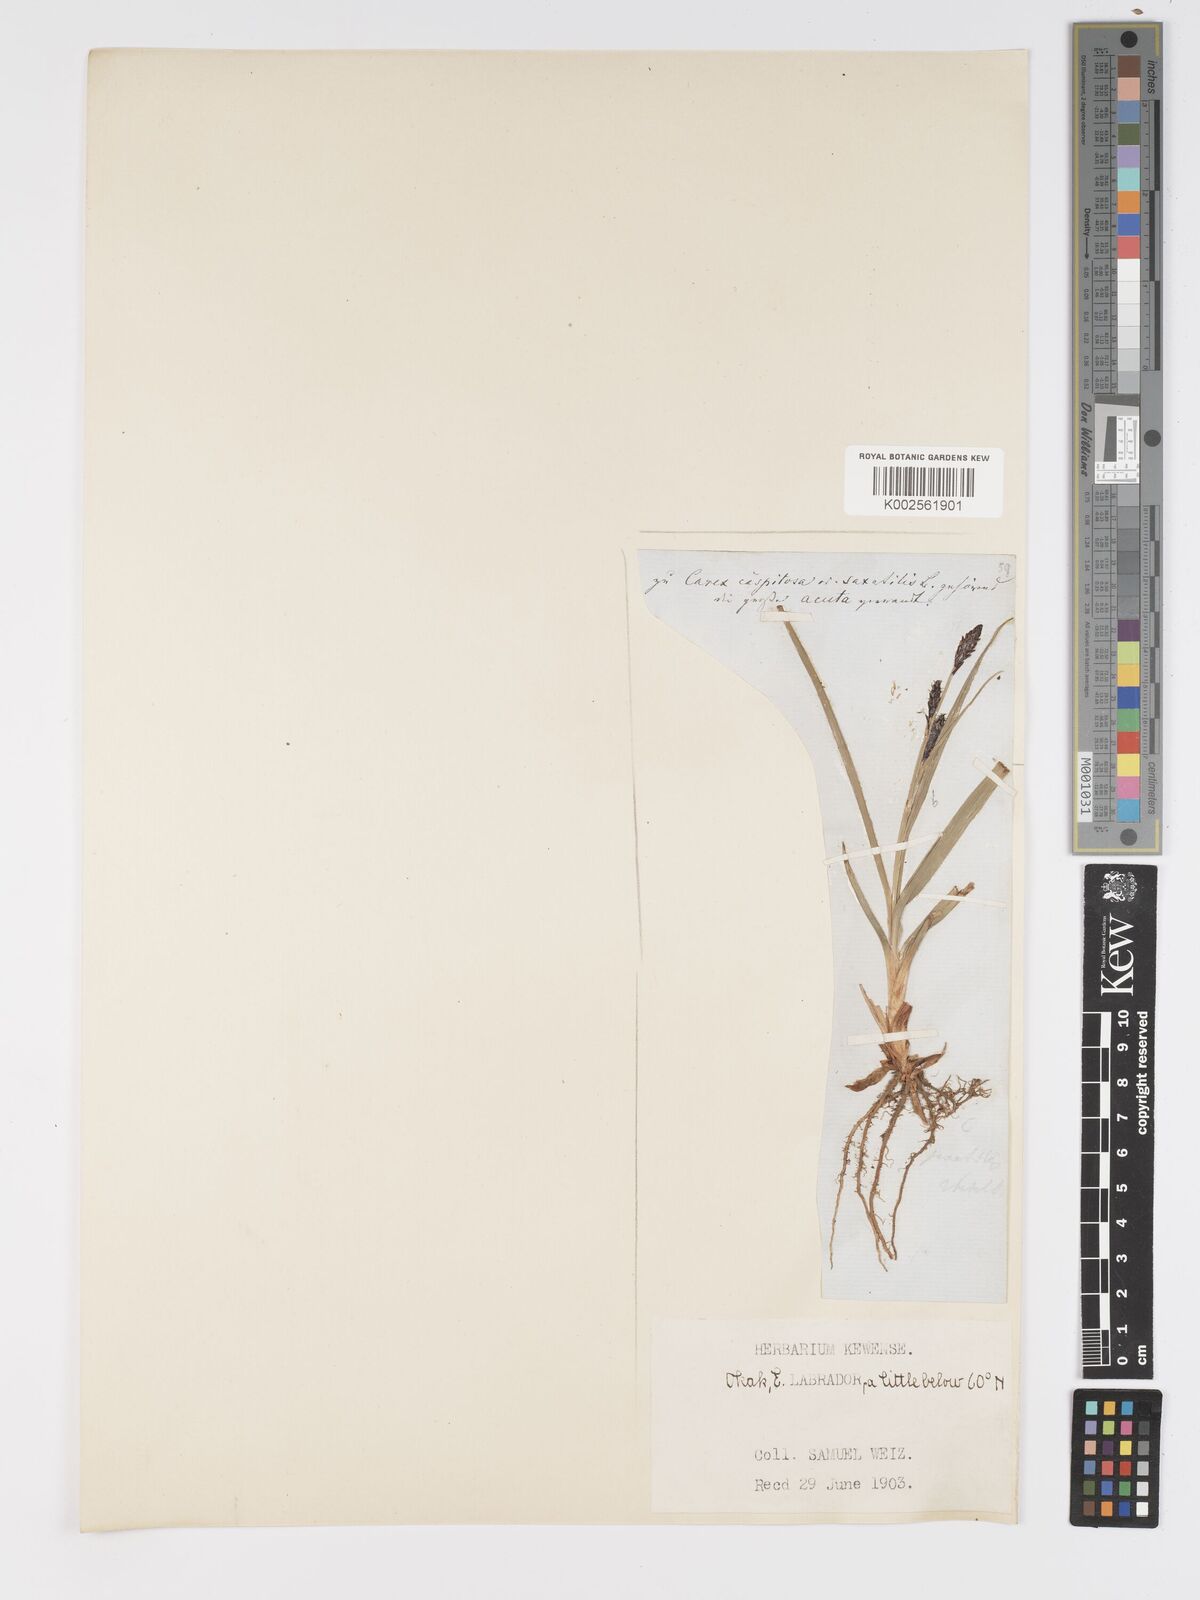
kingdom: Plantae
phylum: Tracheophyta
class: Liliopsida
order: Poales
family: Cyperaceae
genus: Carex
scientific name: Carex bigelowii
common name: Stiff sedge
